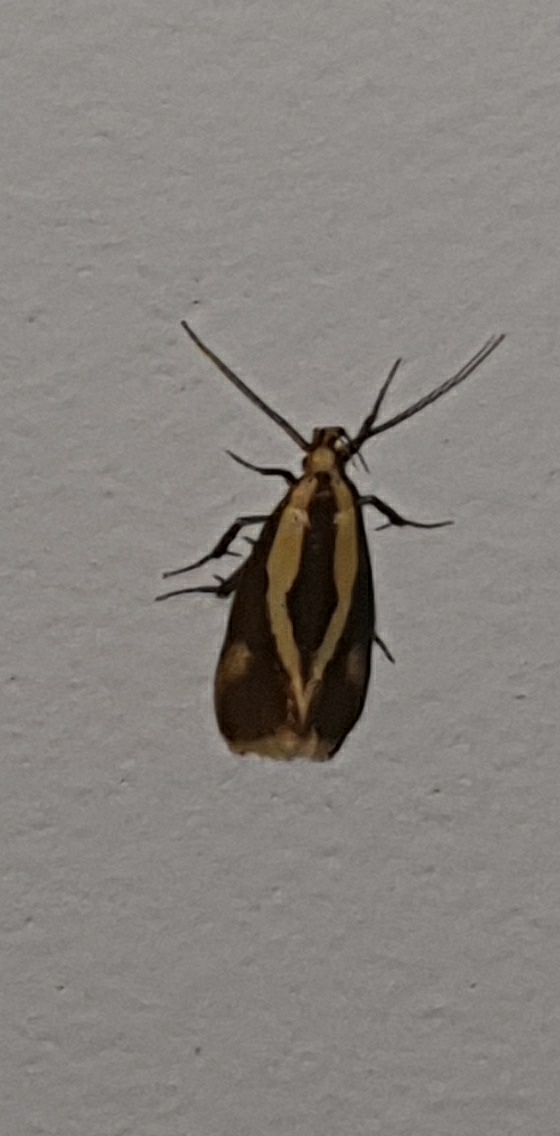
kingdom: Animalia
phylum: Arthropoda
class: Insecta
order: Lepidoptera
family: Oecophoridae
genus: Harpella
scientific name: Harpella forficella
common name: Kæmpeprydvinge
